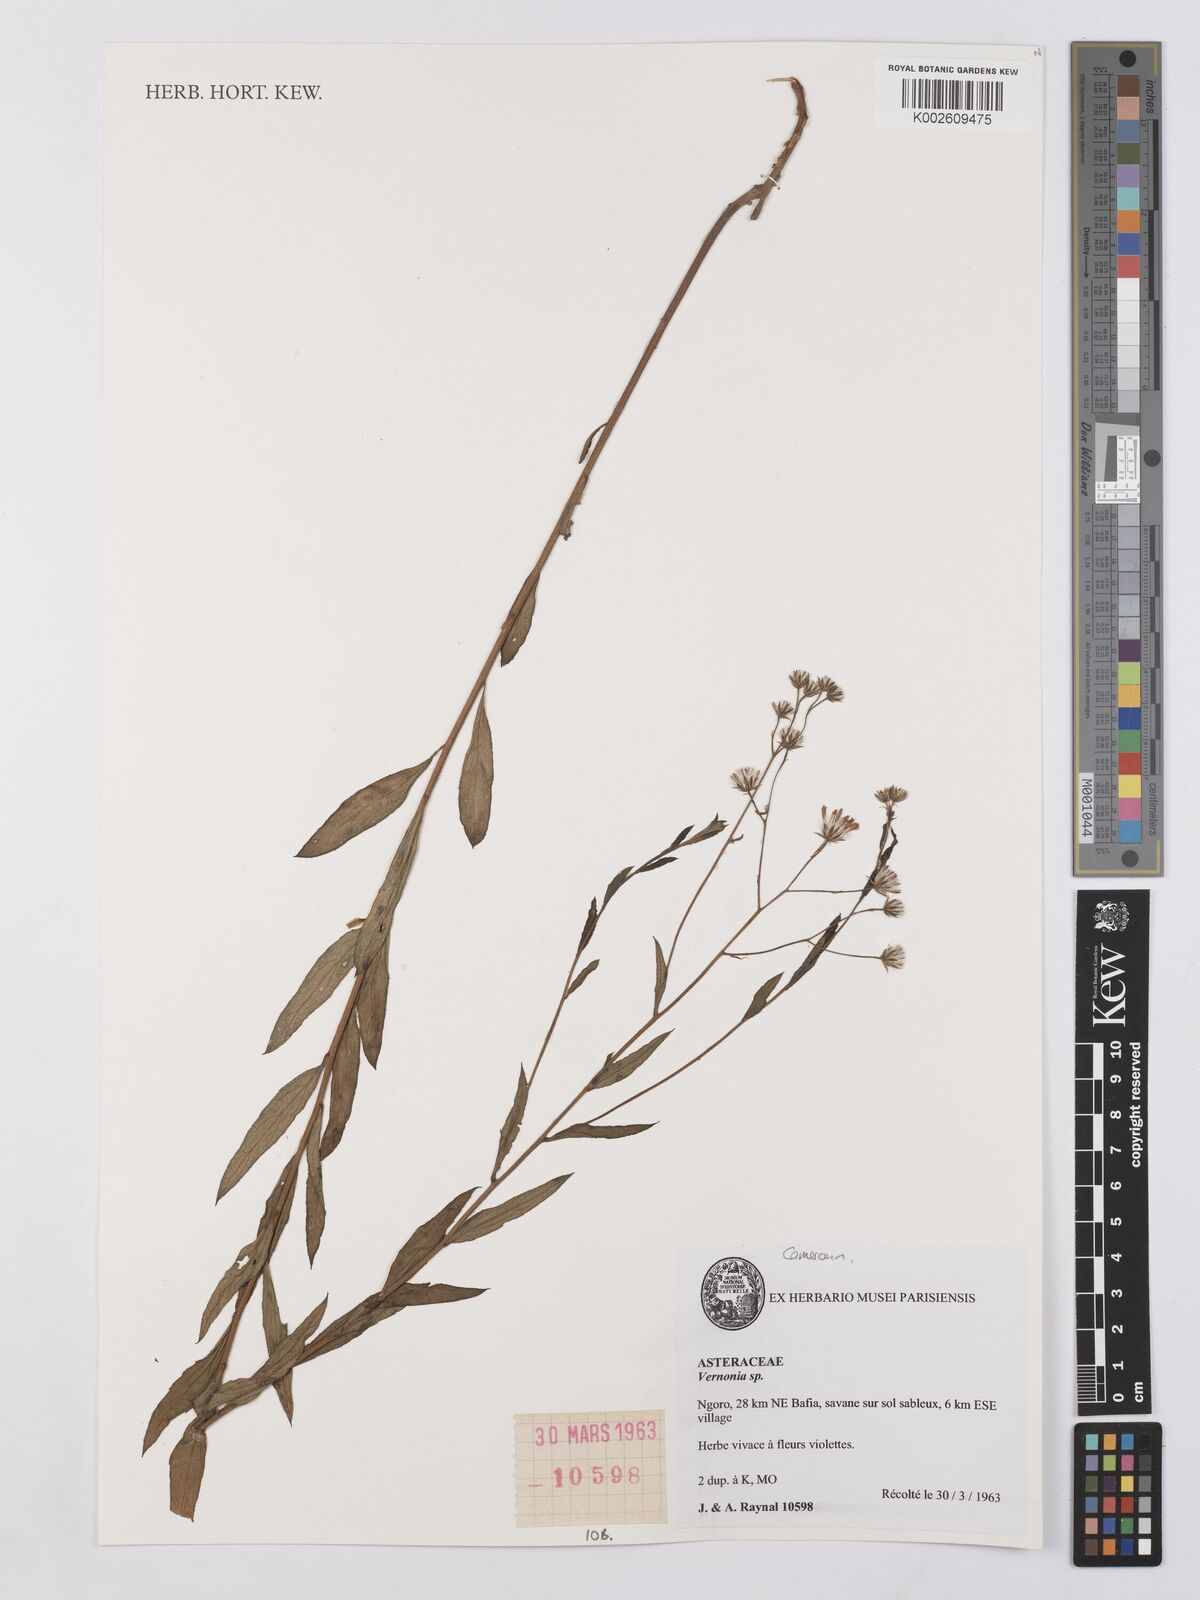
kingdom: Plantae
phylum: Tracheophyta
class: Magnoliopsida
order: Asterales
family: Asteraceae
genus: Vernonia
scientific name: Vernonia
